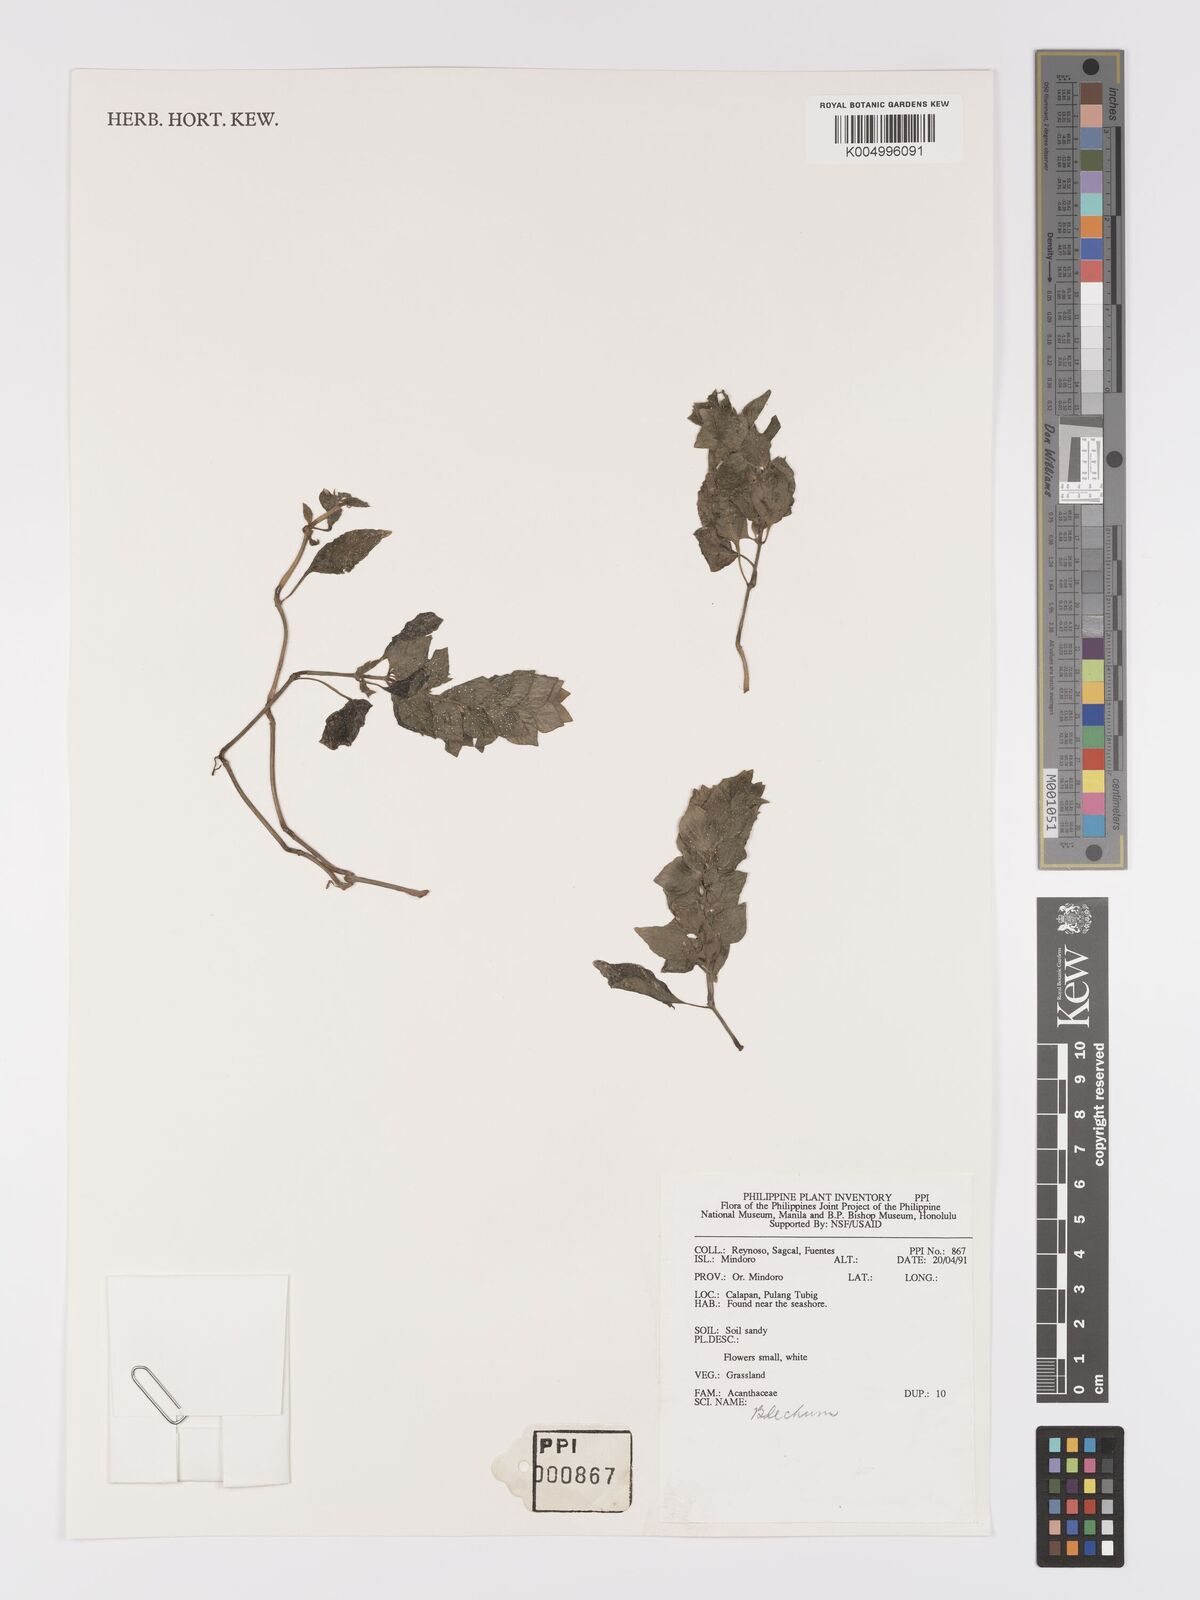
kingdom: Plantae
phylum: Tracheophyta
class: Magnoliopsida
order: Lamiales
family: Acanthaceae
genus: Ruellia
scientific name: Ruellia blechum
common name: Browne's blechum
